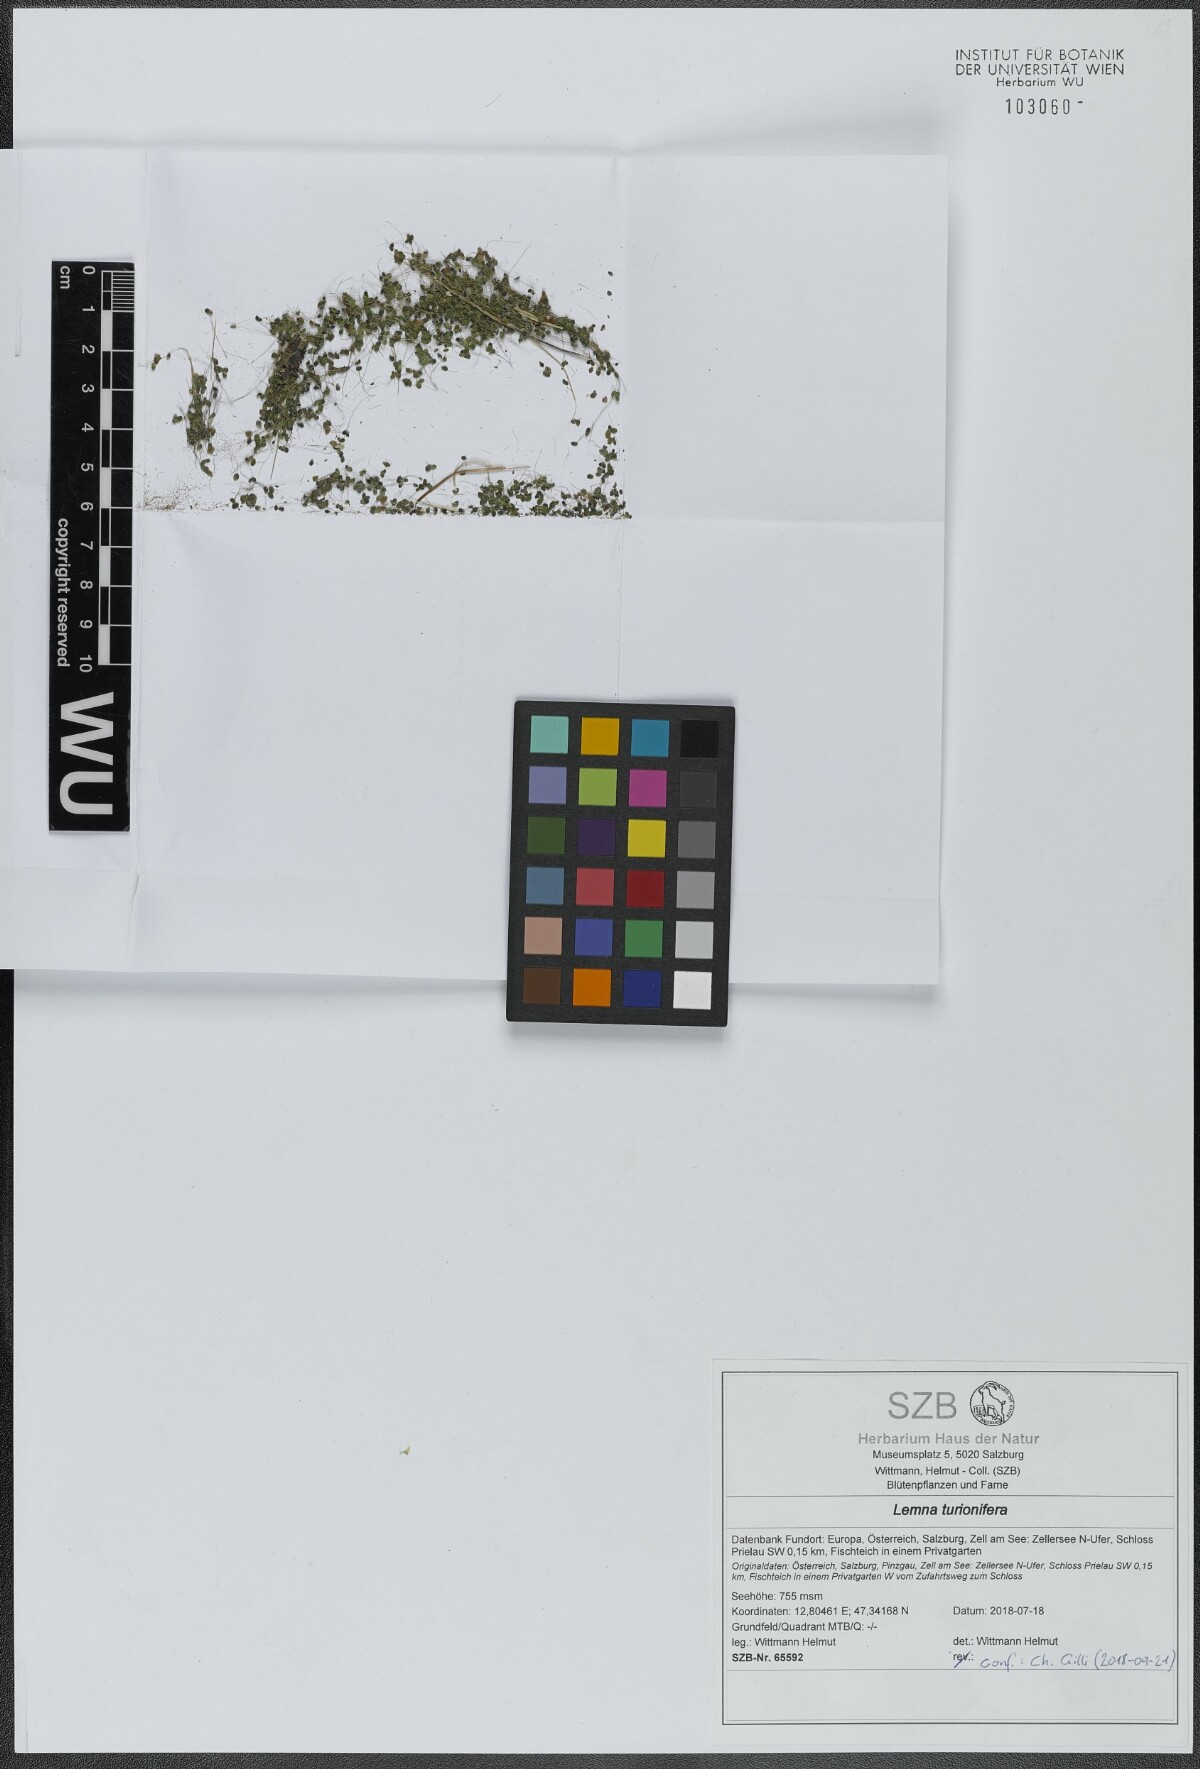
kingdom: Plantae
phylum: Tracheophyta
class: Liliopsida
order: Alismatales
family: Araceae
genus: Lemna
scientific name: Lemna turionifera
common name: Perennial duckweed
